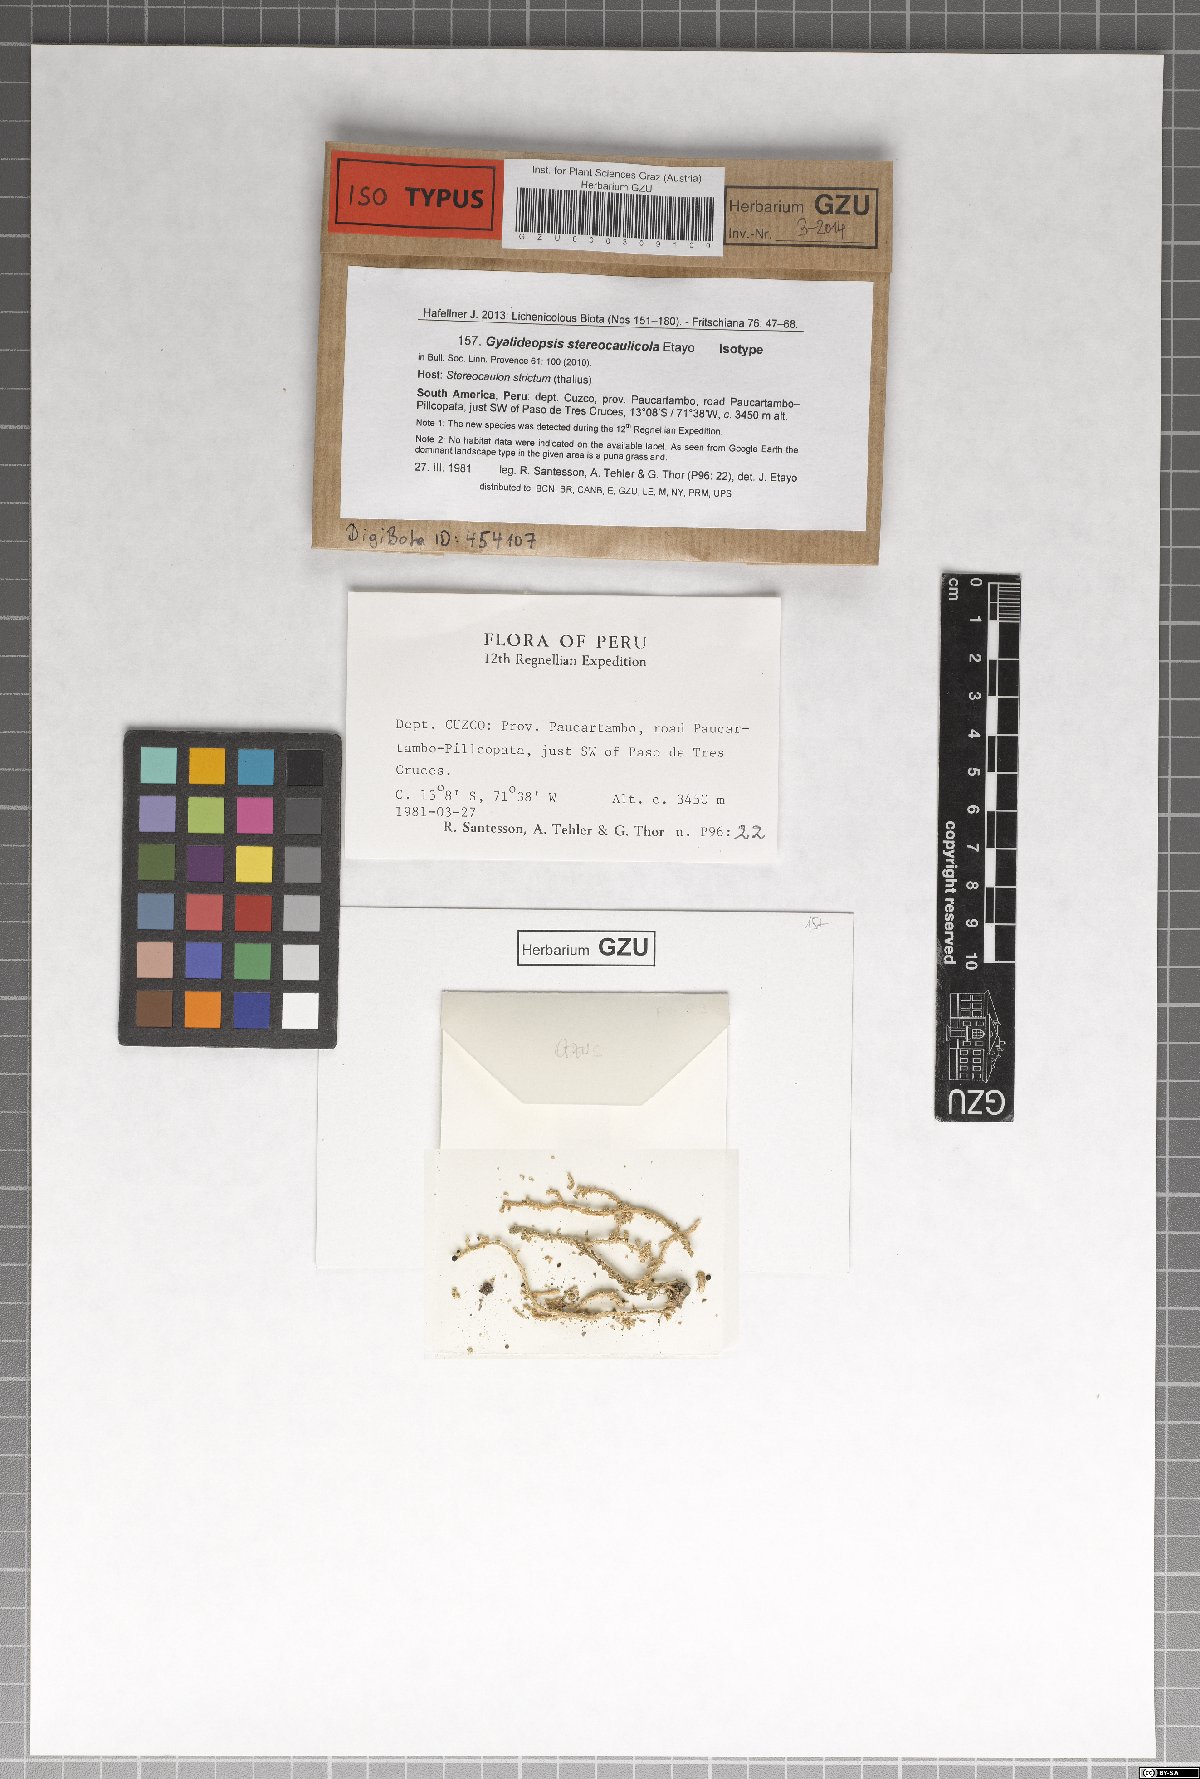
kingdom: Fungi
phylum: Ascomycota
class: Lecanoromycetes
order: Ostropales
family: Gomphillaceae
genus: Paragyalideopsis
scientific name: Paragyalideopsis stereocaulicola
